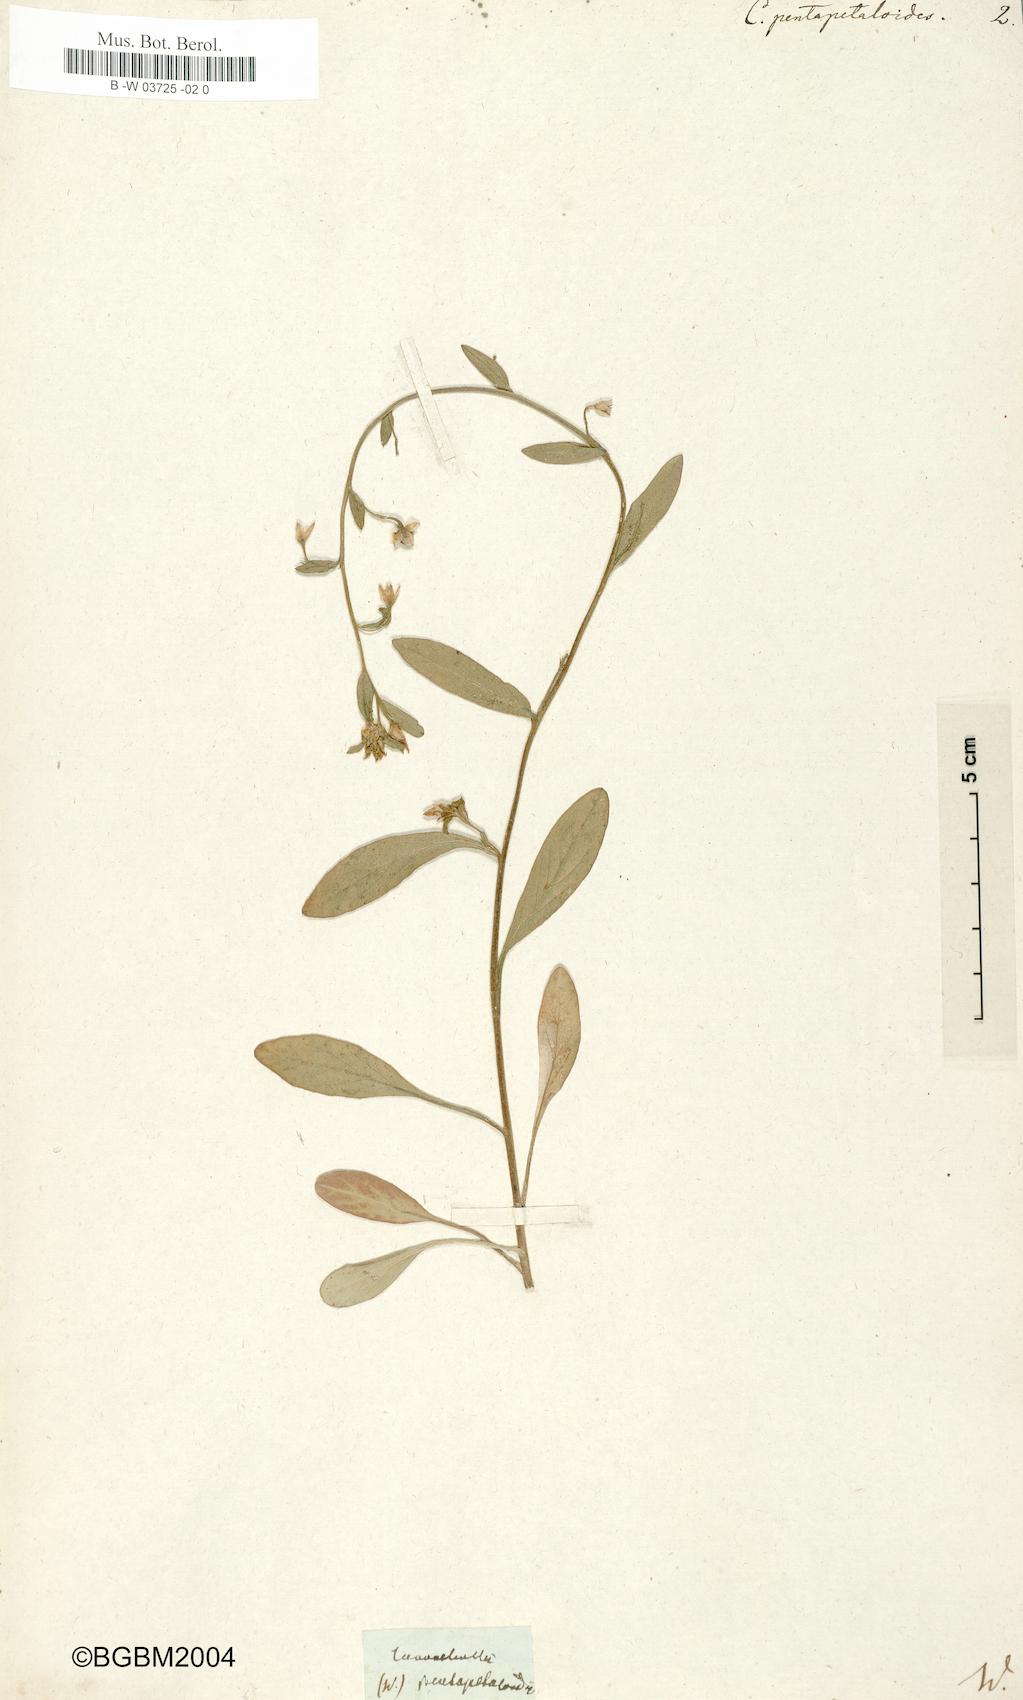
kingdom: Plantae
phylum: Tracheophyta
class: Magnoliopsida
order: Solanales
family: Convolvulaceae
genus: Convolvulus
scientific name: Convolvulus pentapetaloides
